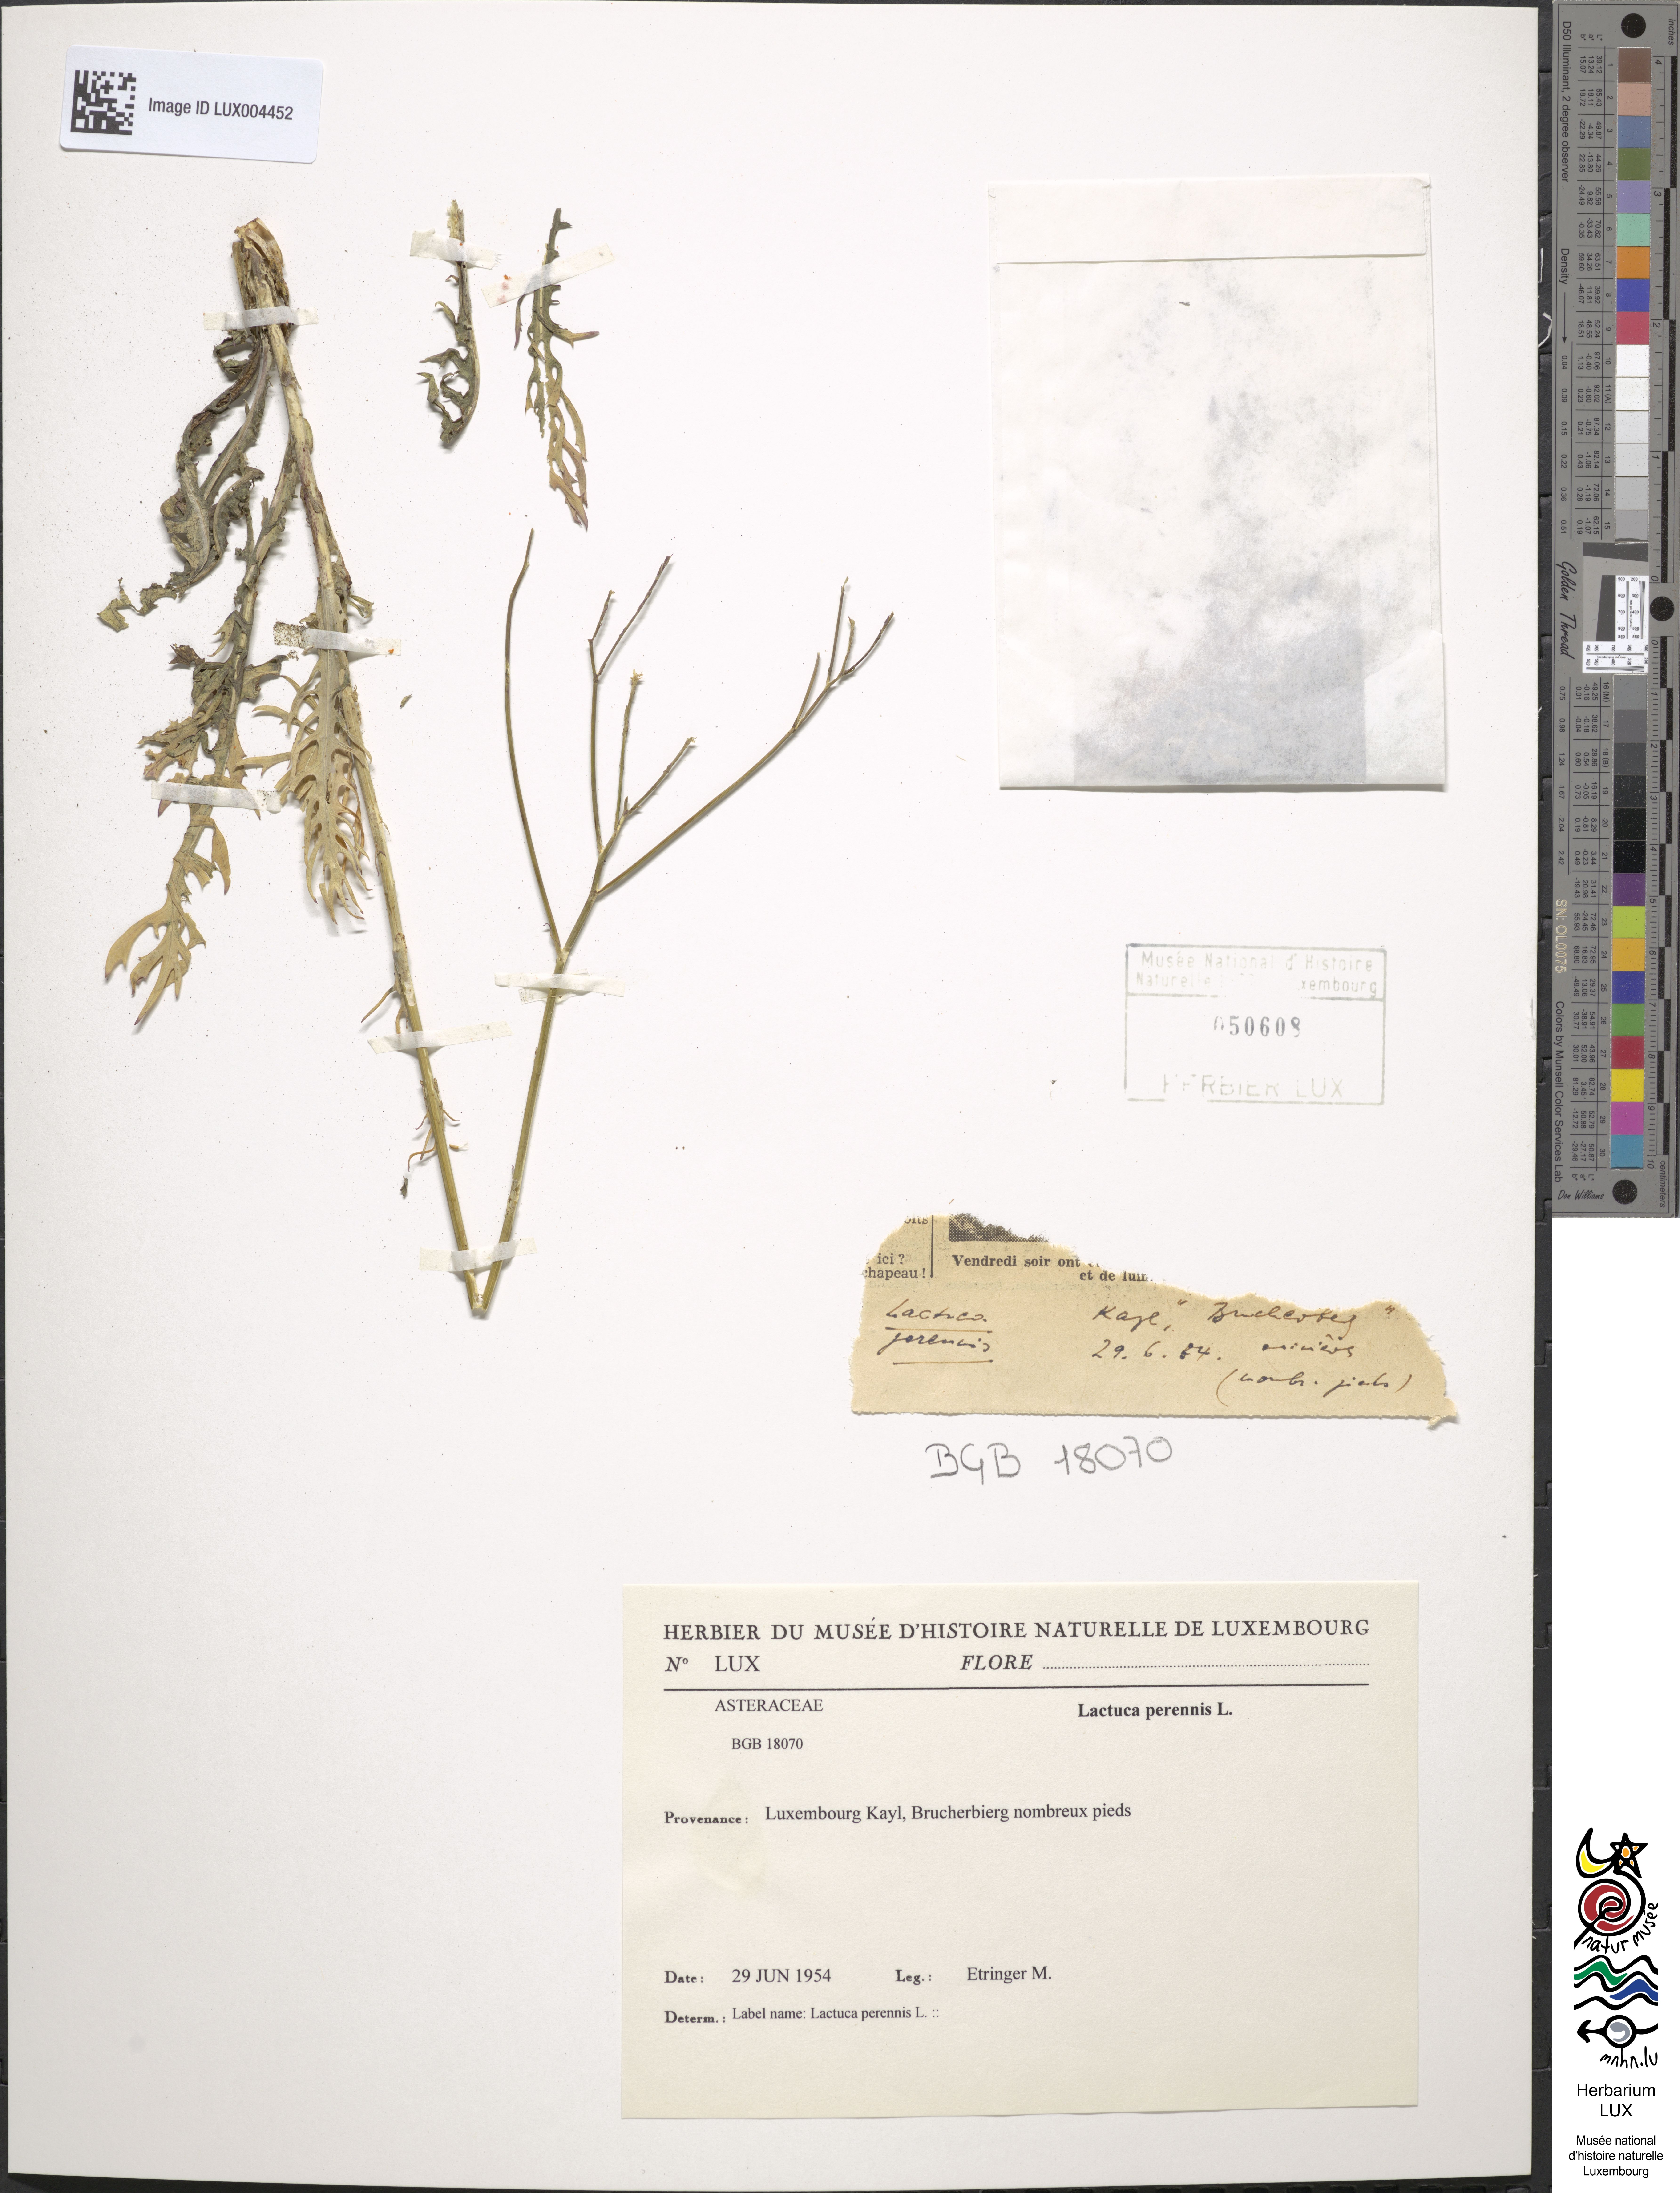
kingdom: Plantae
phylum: Tracheophyta
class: Magnoliopsida
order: Asterales
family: Asteraceae
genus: Lactuca
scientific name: Lactuca perennis
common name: Mountain lettuce
